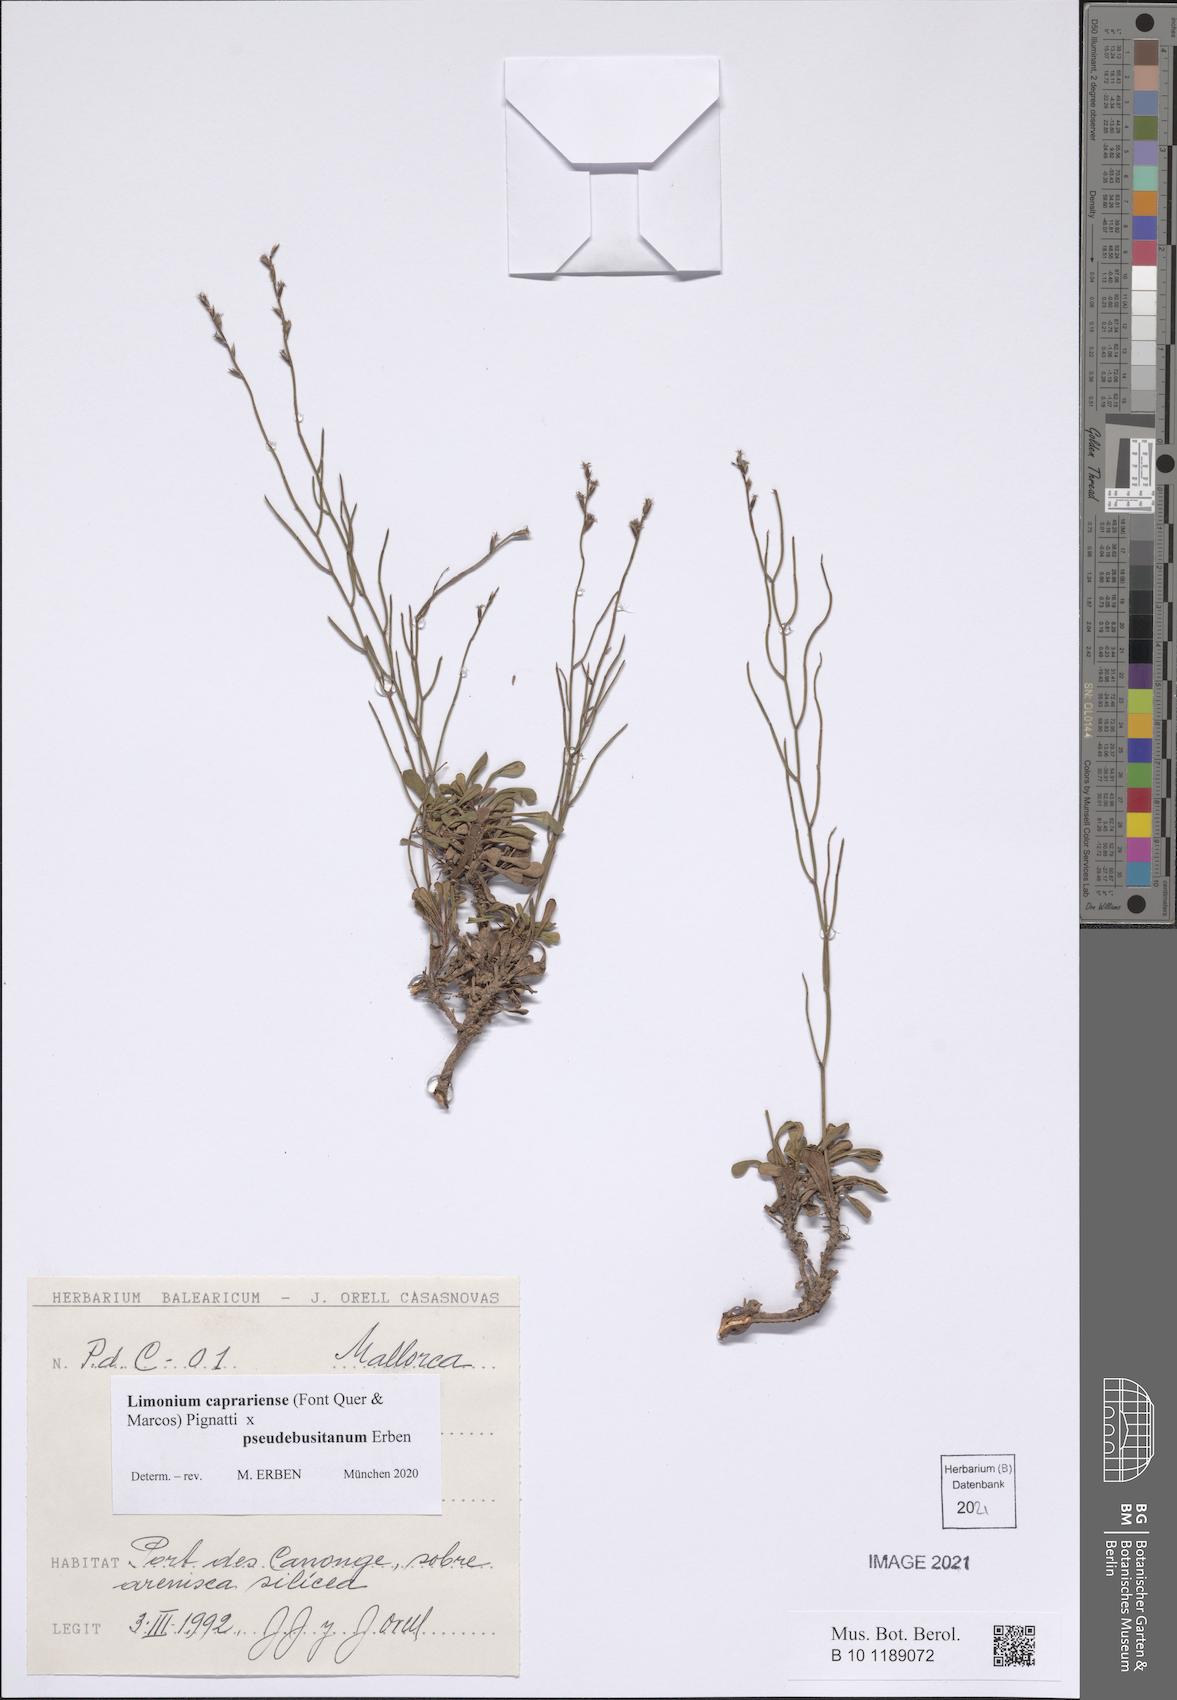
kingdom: Plantae
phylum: Tracheophyta
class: Magnoliopsida
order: Caryophyllales
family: Plumbaginaceae
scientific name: Plumbaginaceae
